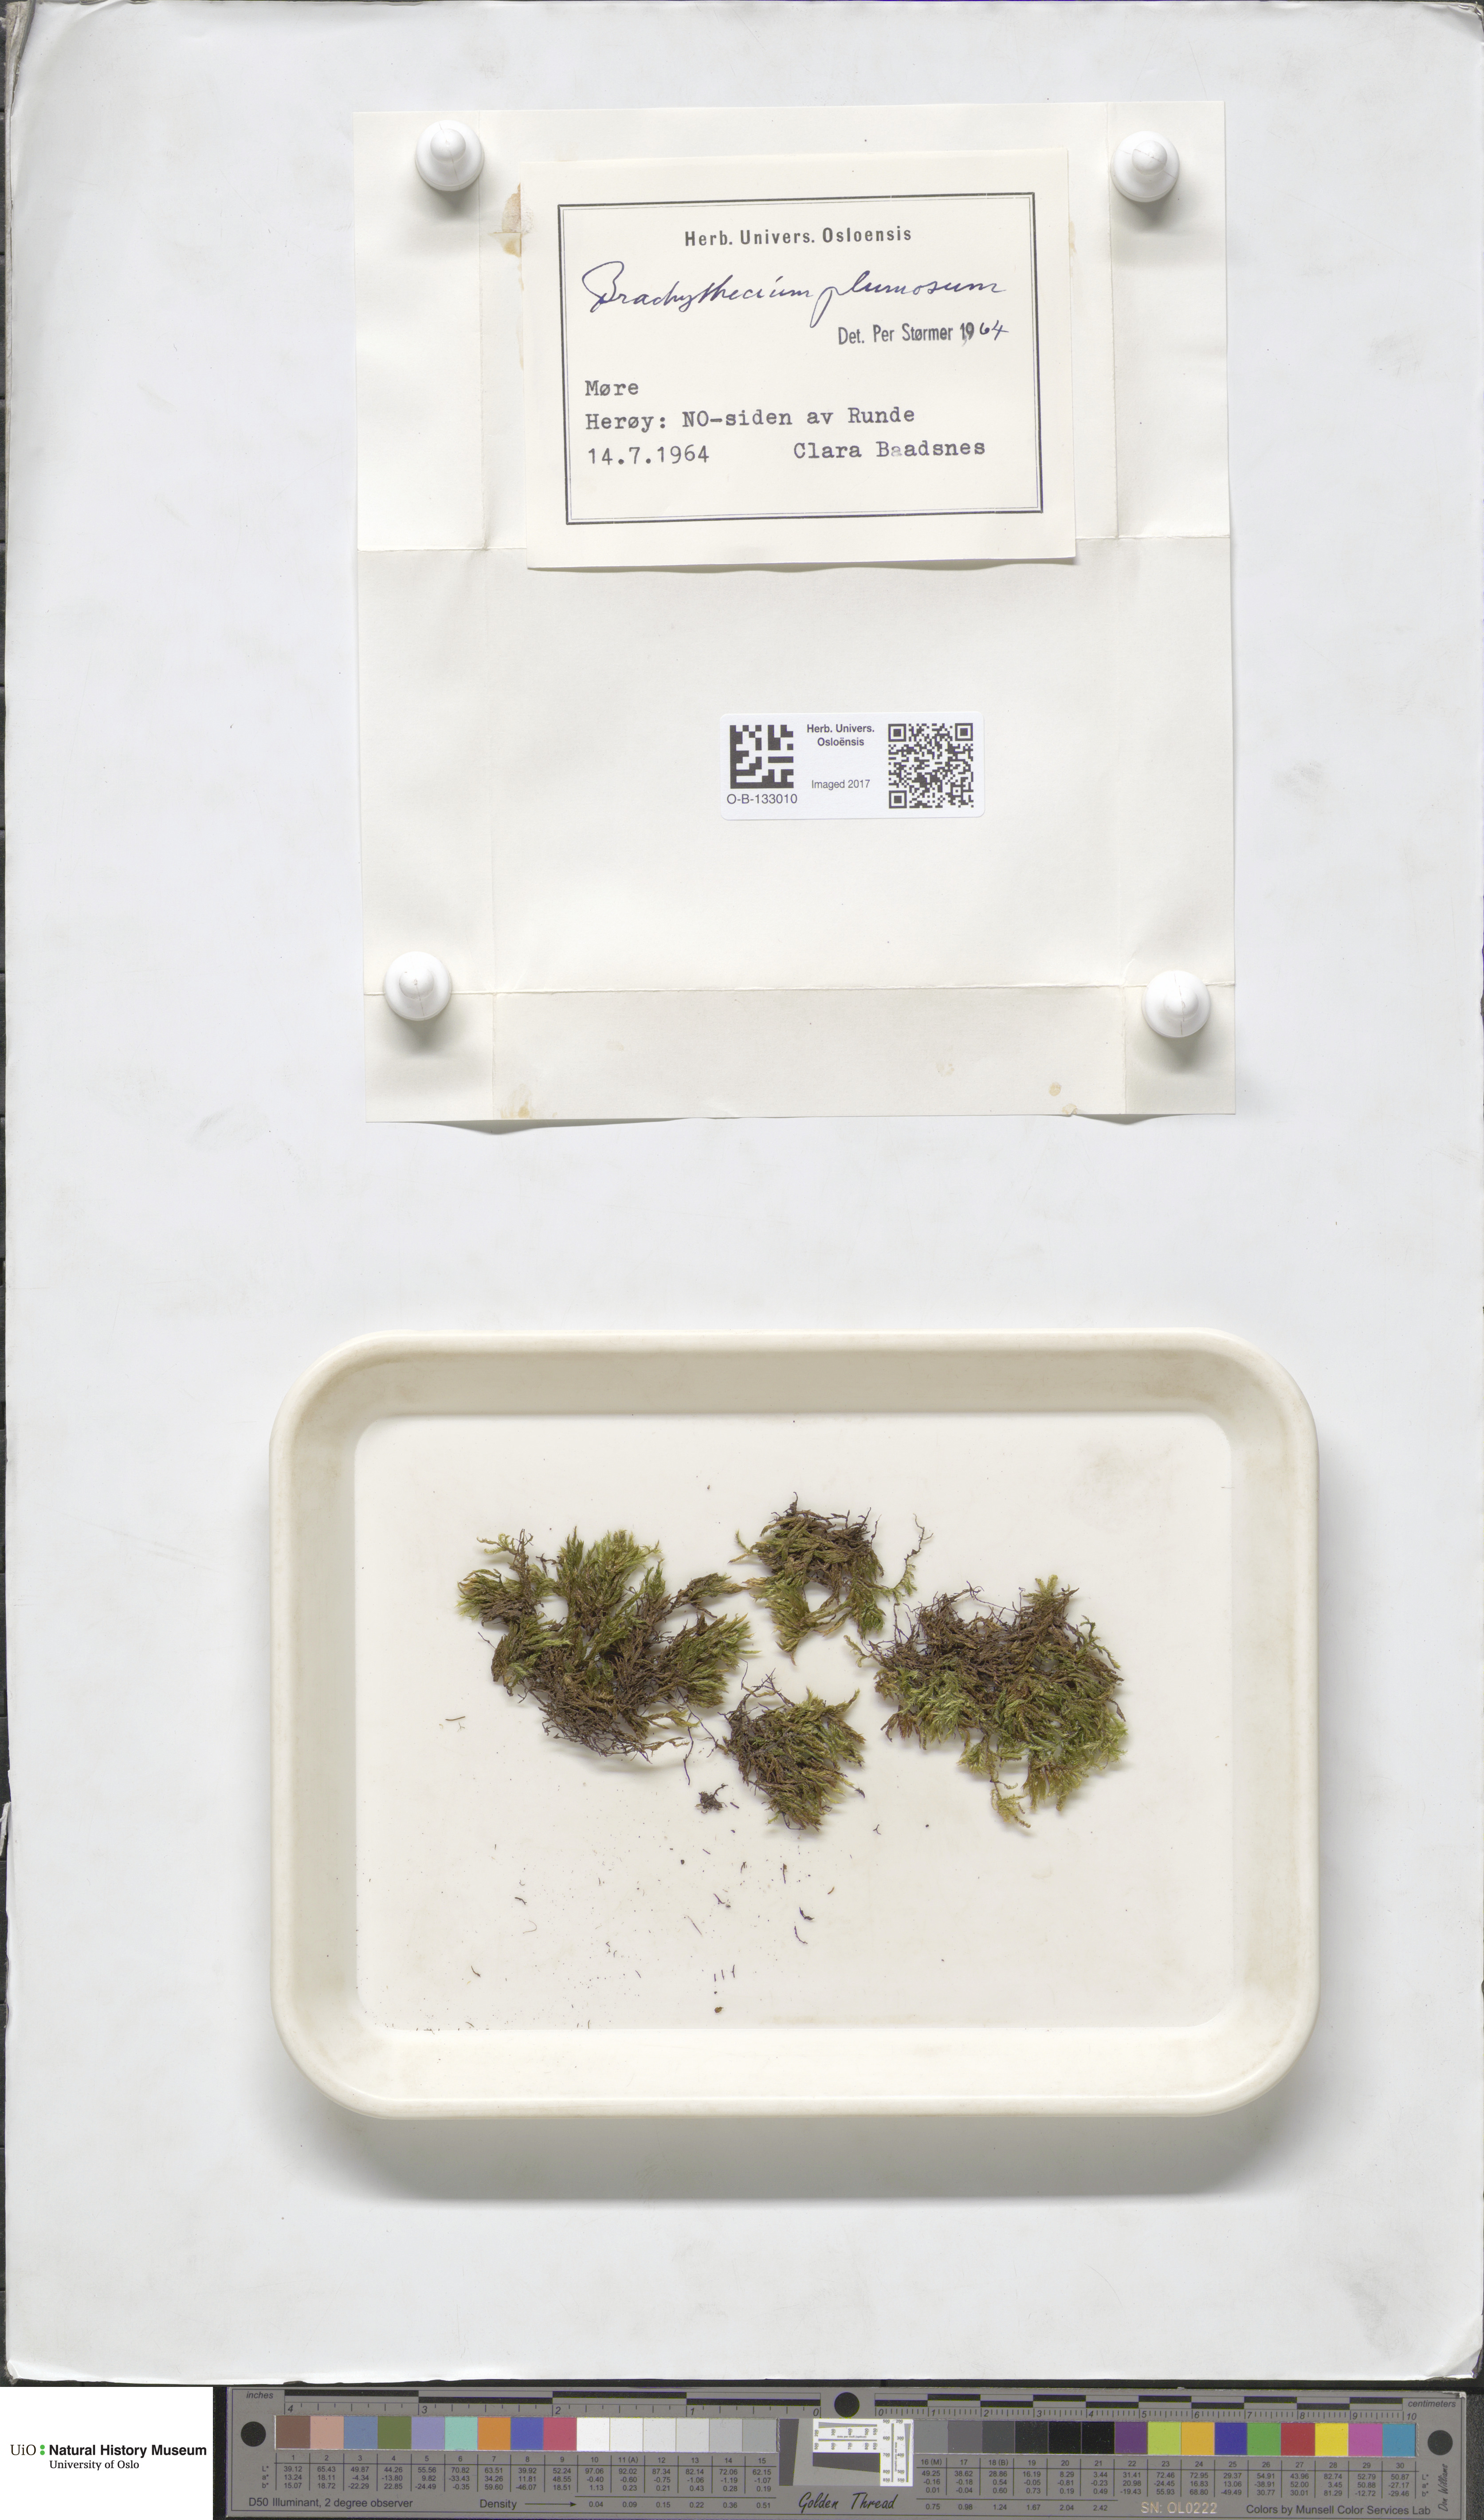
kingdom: Plantae
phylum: Bryophyta
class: Bryopsida
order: Hypnales
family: Brachytheciaceae
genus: Sciuro-hypnum
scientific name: Sciuro-hypnum plumosum
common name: Rusty feather-moss
